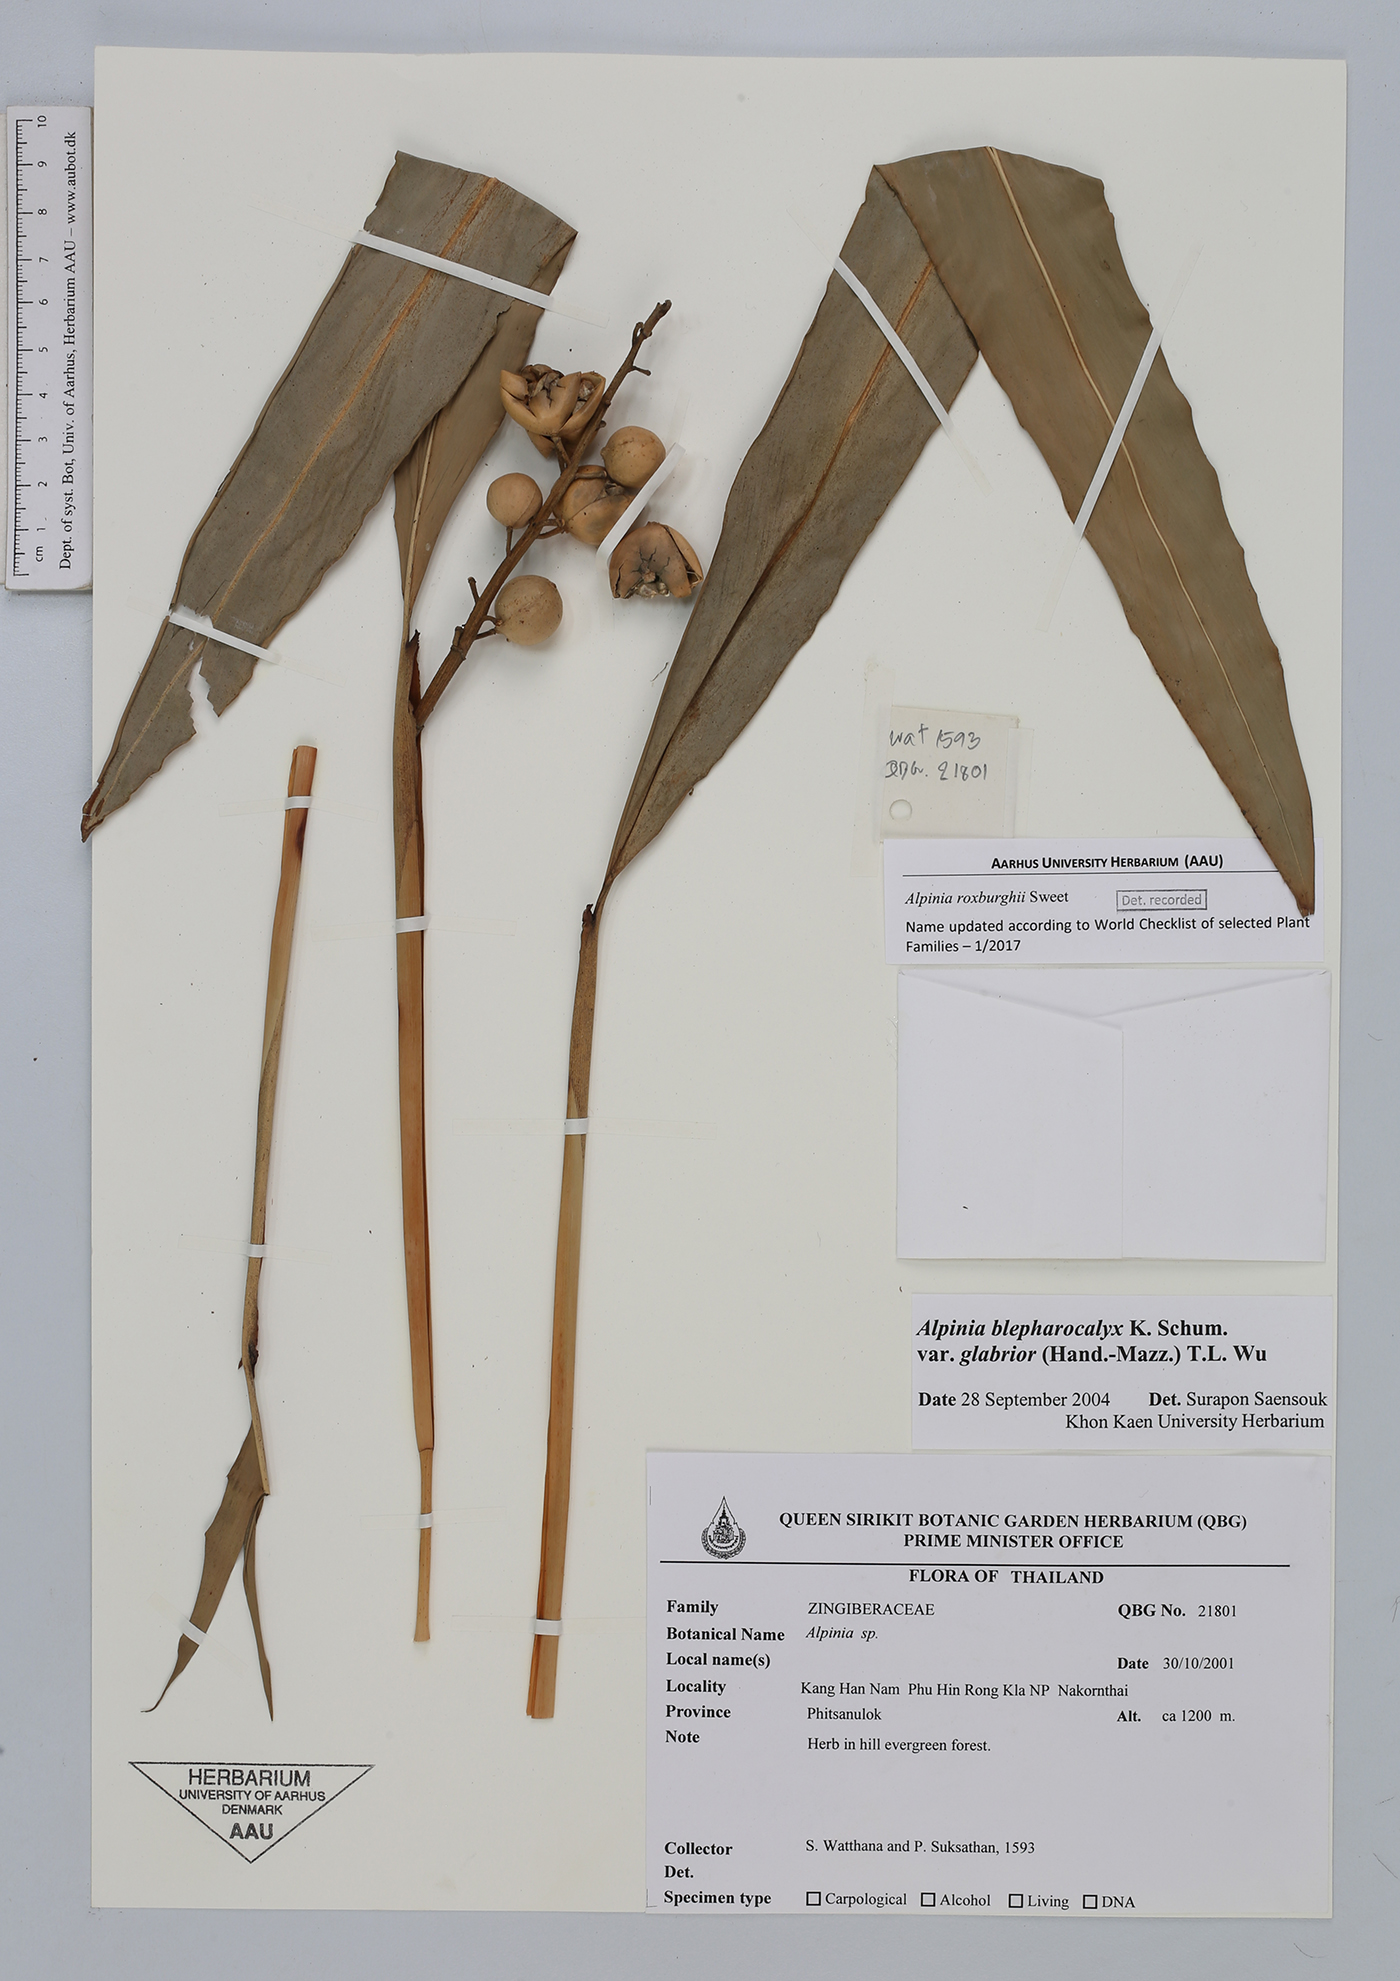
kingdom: Plantae
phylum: Tracheophyta
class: Liliopsida
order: Zingiberales
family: Zingiberaceae
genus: Alpinia
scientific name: Alpinia roxburghii
